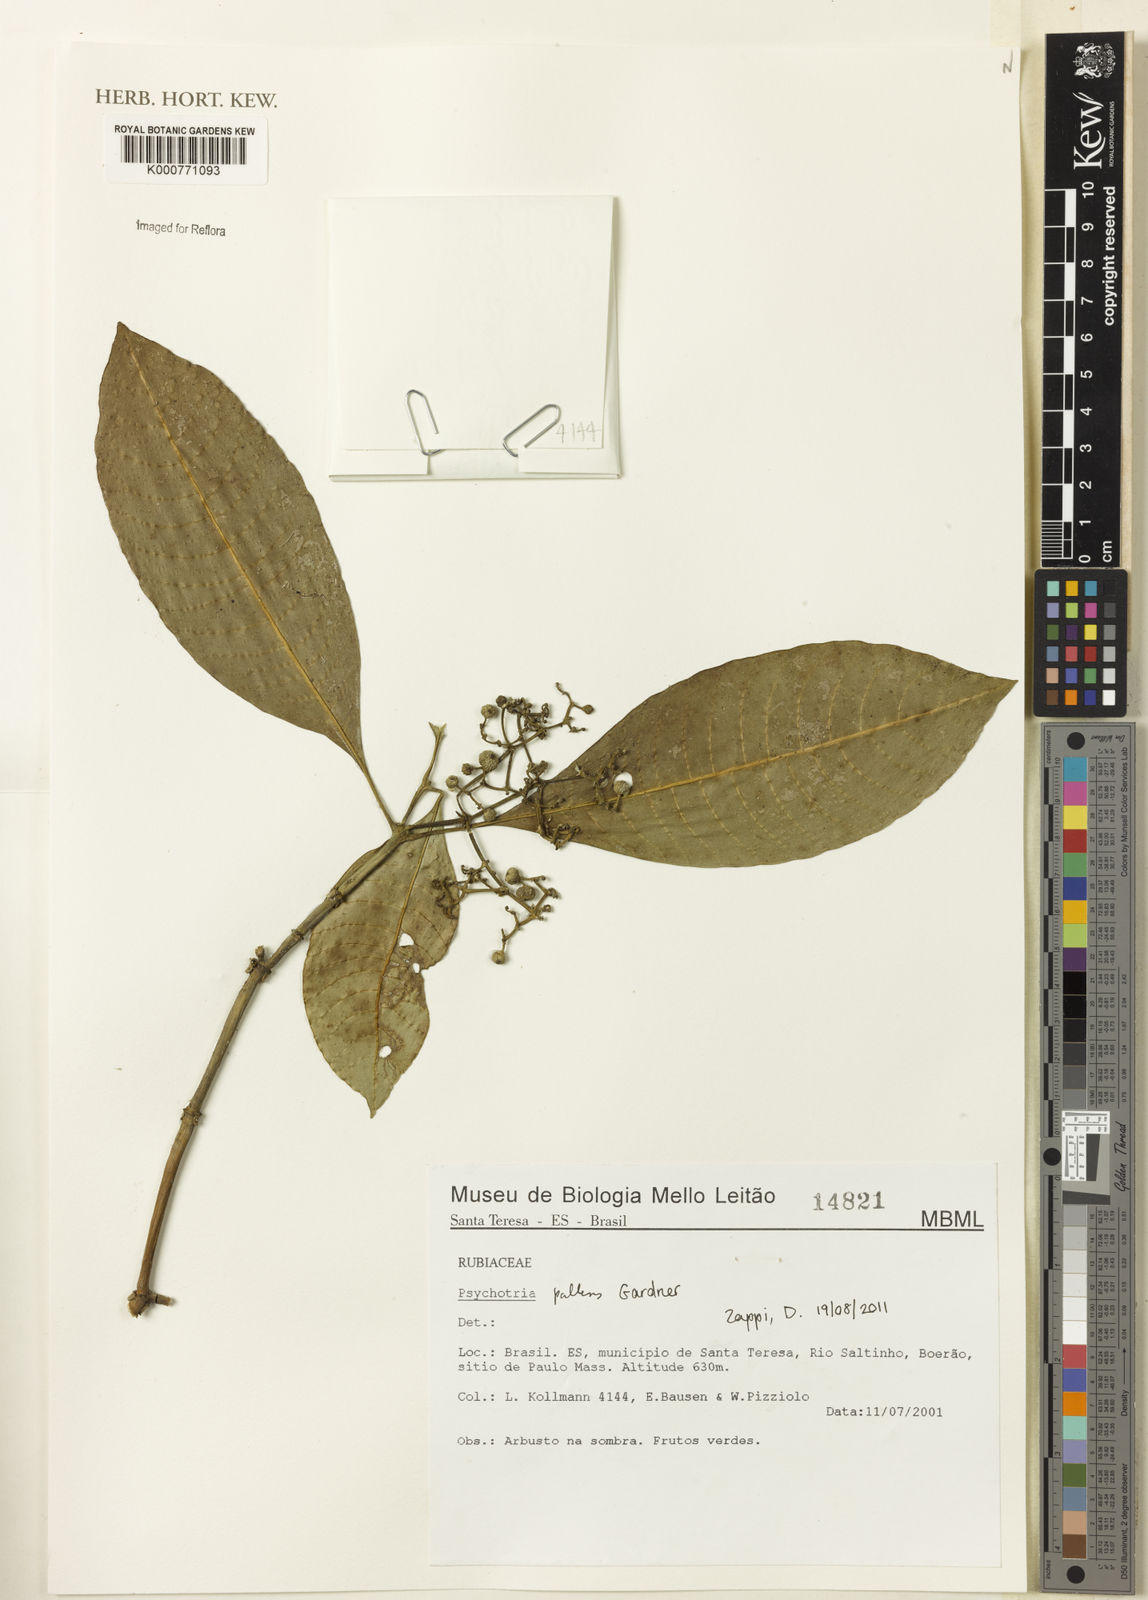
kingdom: Plantae
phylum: Tracheophyta
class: Magnoliopsida
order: Gentianales
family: Rubiaceae
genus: Psychotria
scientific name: Psychotria pallens
